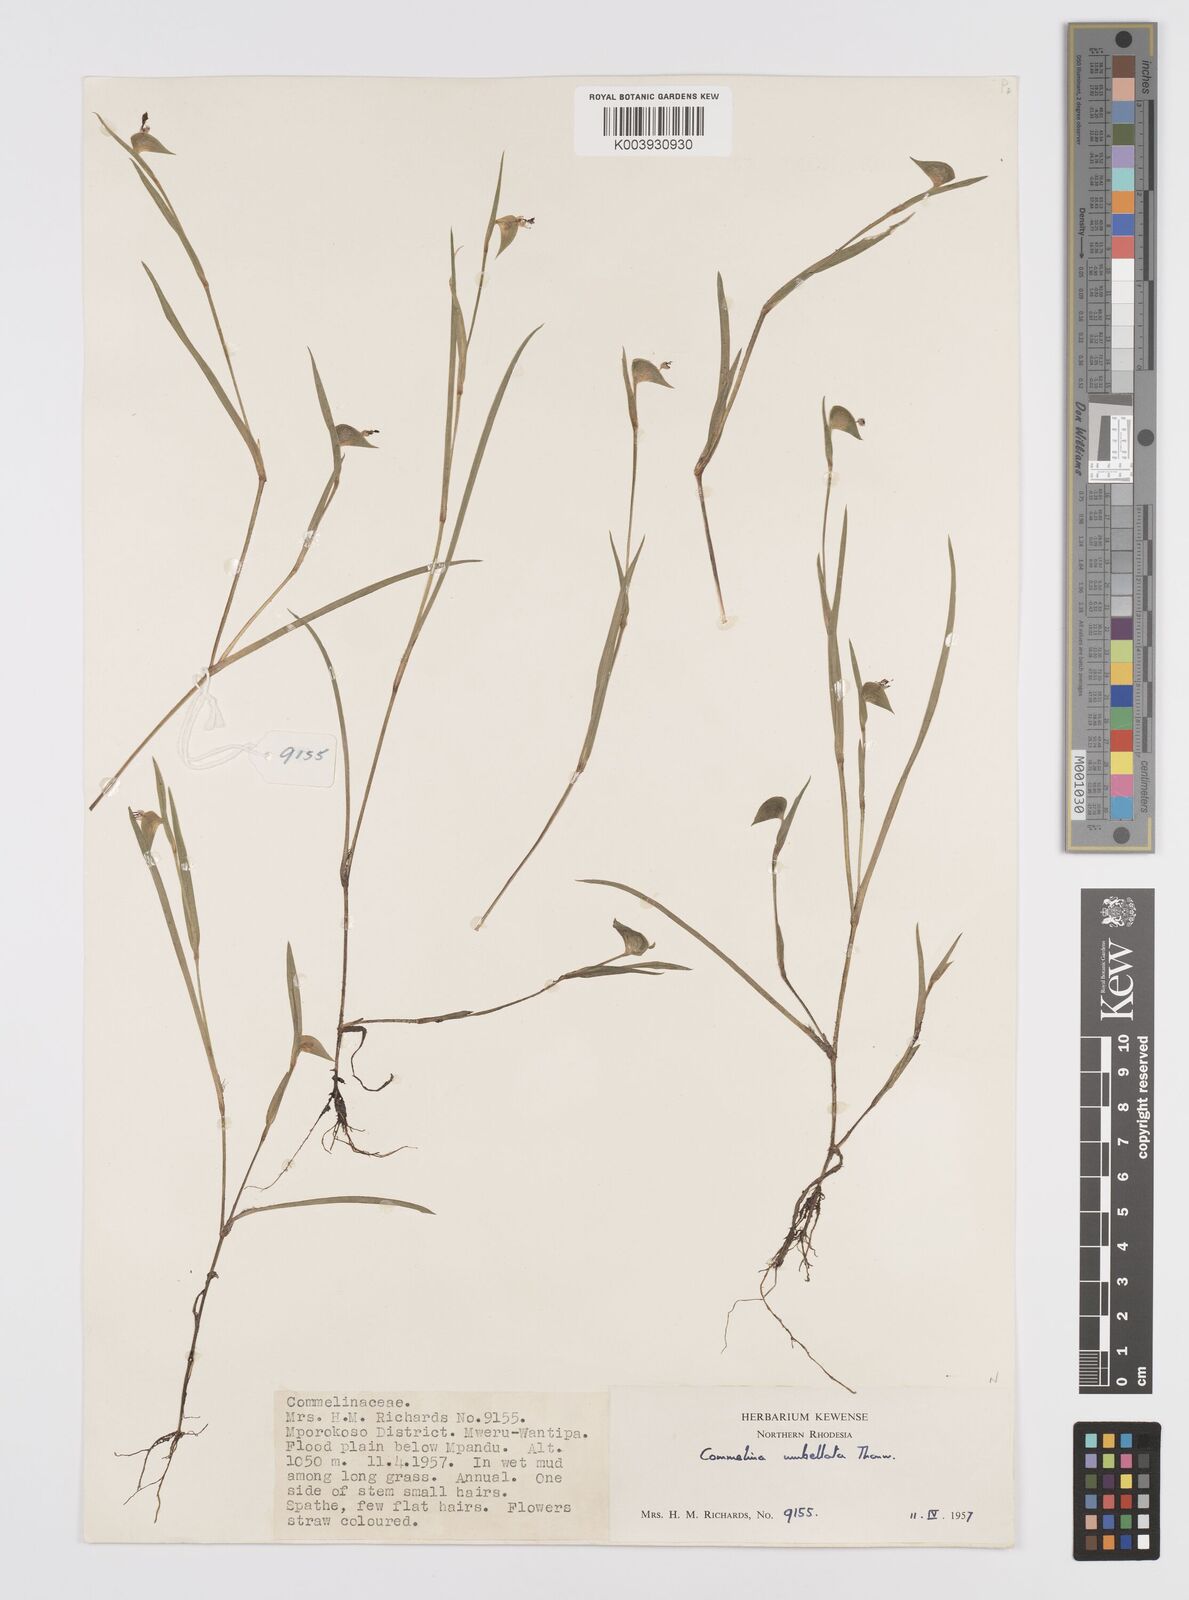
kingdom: Plantae
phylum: Tracheophyta
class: Liliopsida
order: Commelinales
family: Commelinaceae
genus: Commelina
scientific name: Commelina nigritana
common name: African dayflower
